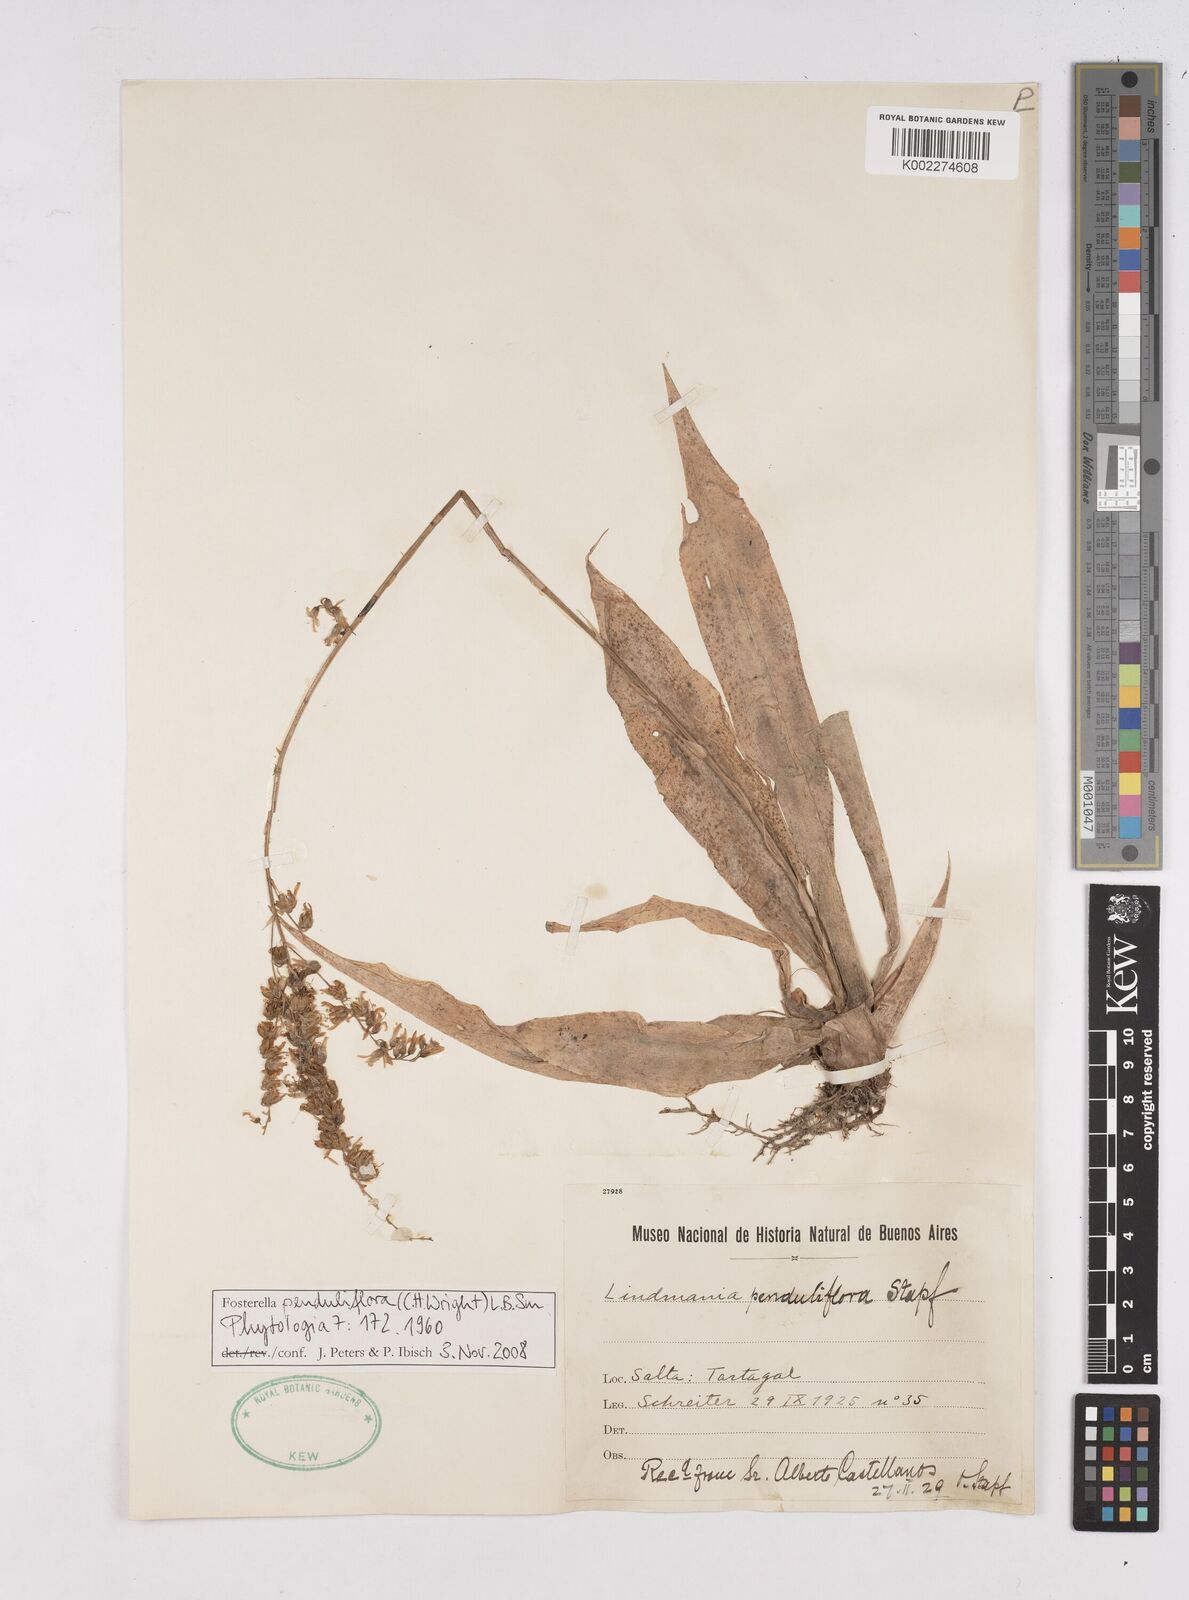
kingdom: Plantae
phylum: Tracheophyta
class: Liliopsida
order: Poales
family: Bromeliaceae
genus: Fosterella
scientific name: Fosterella penduliflora
